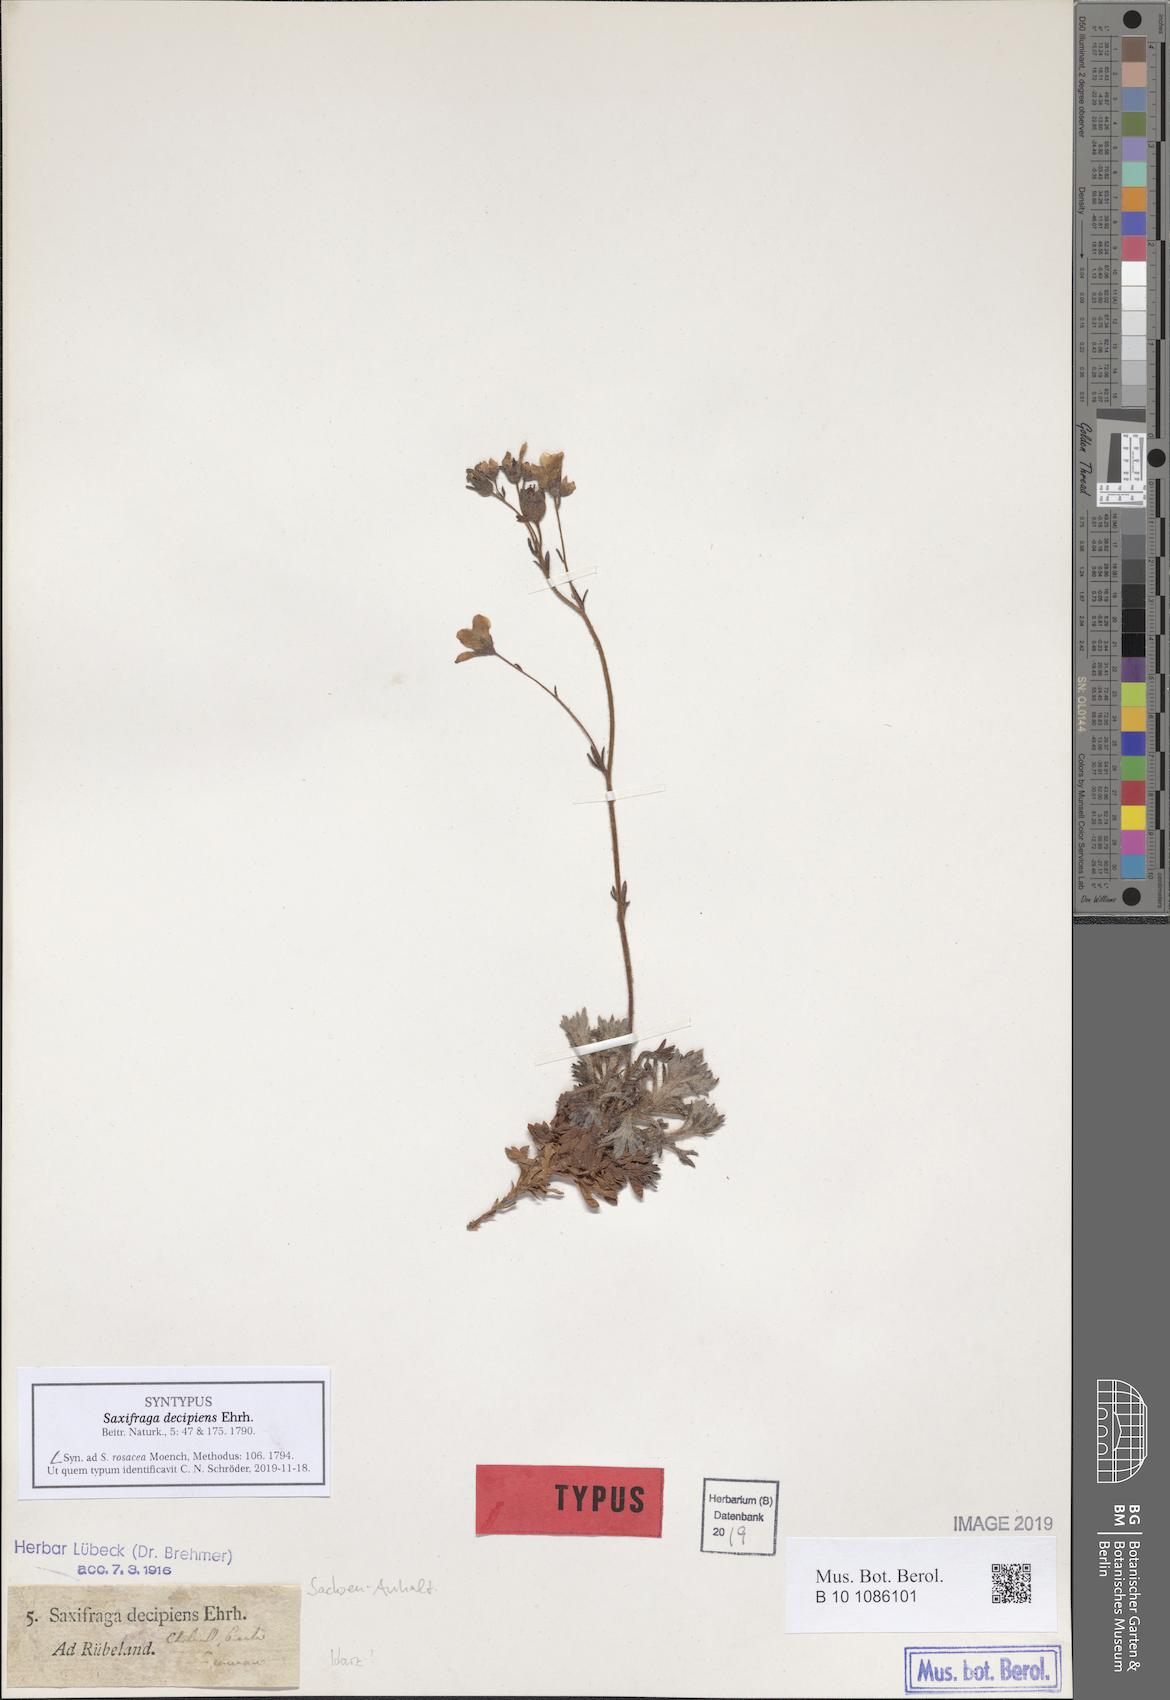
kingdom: Plantae
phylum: Tracheophyta
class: Magnoliopsida
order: Saxifragales
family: Saxifragaceae
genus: Saxifraga
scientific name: Saxifraga rosacea
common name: Irish saxifrage
